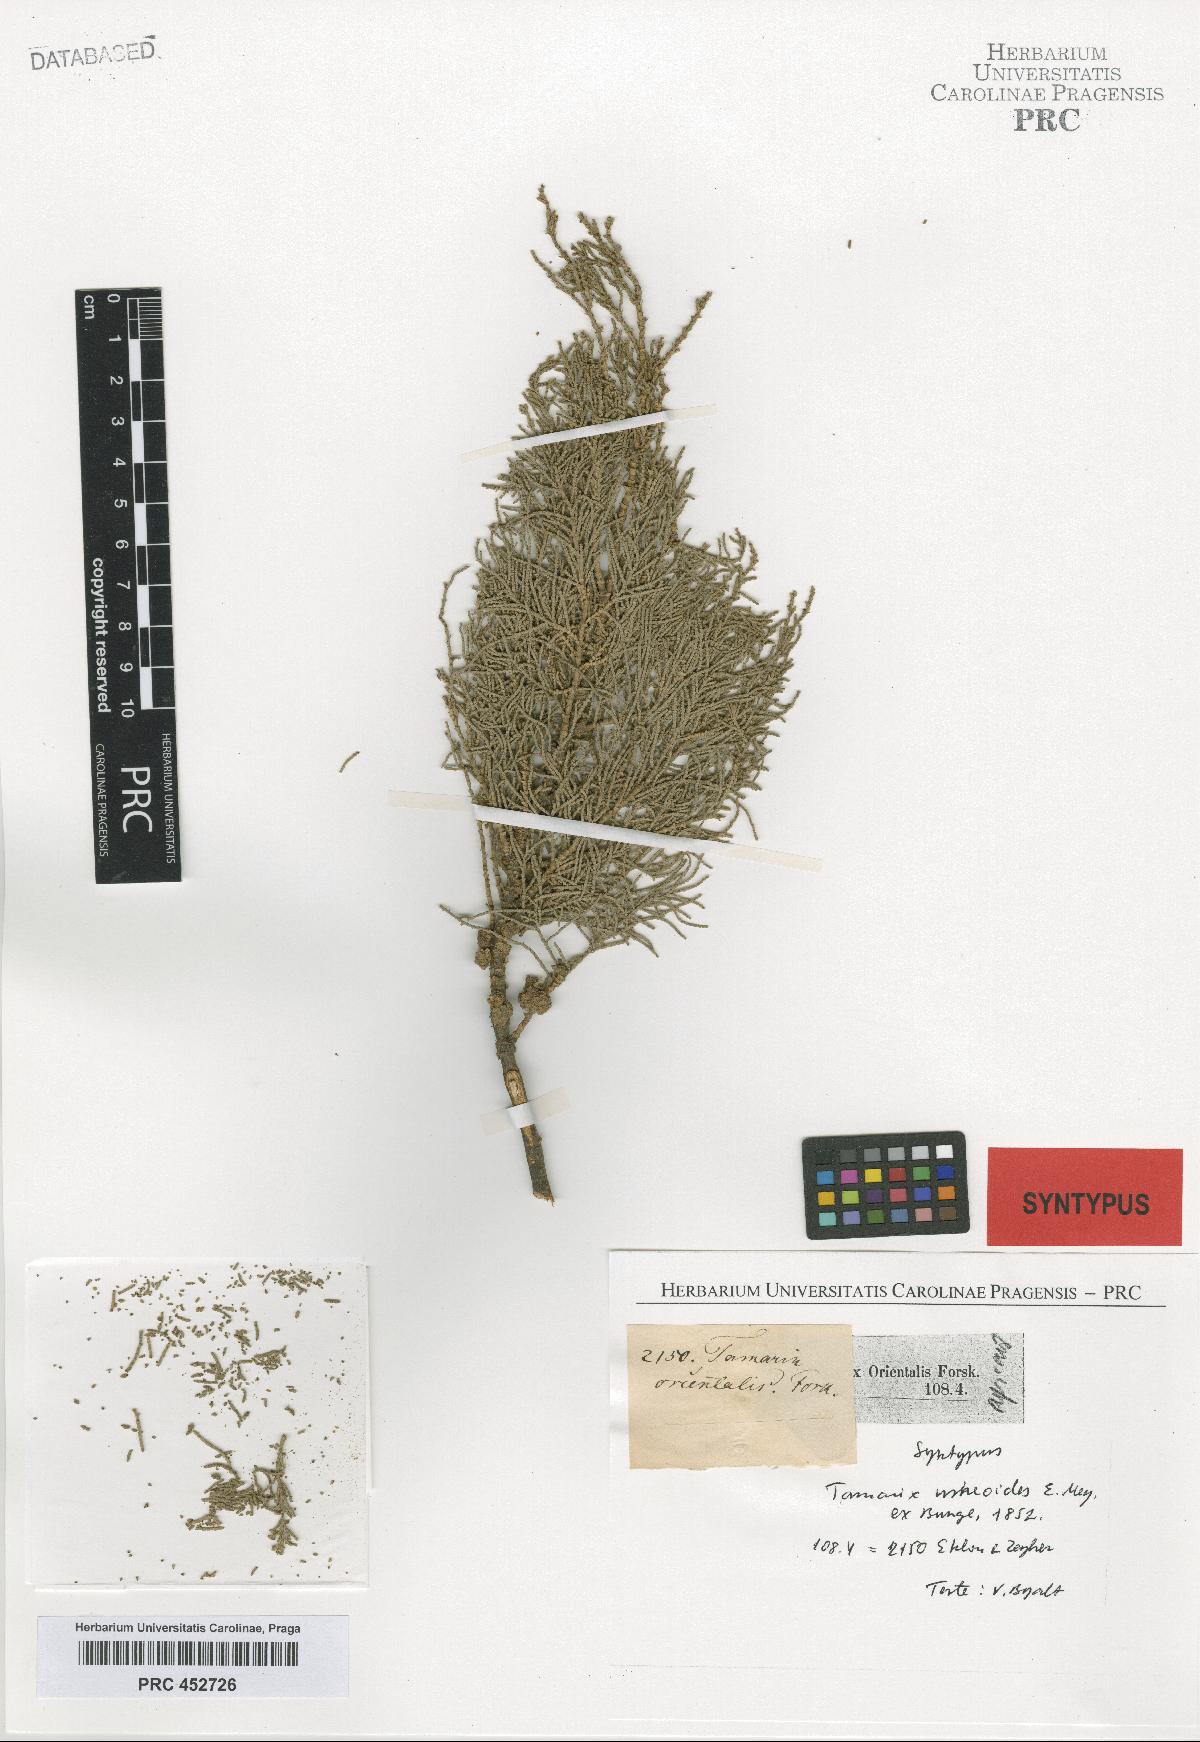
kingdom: Plantae
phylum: Tracheophyta
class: Magnoliopsida
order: Caryophyllales
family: Tamaricaceae
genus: Tamarix
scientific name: Tamarix usneoides
